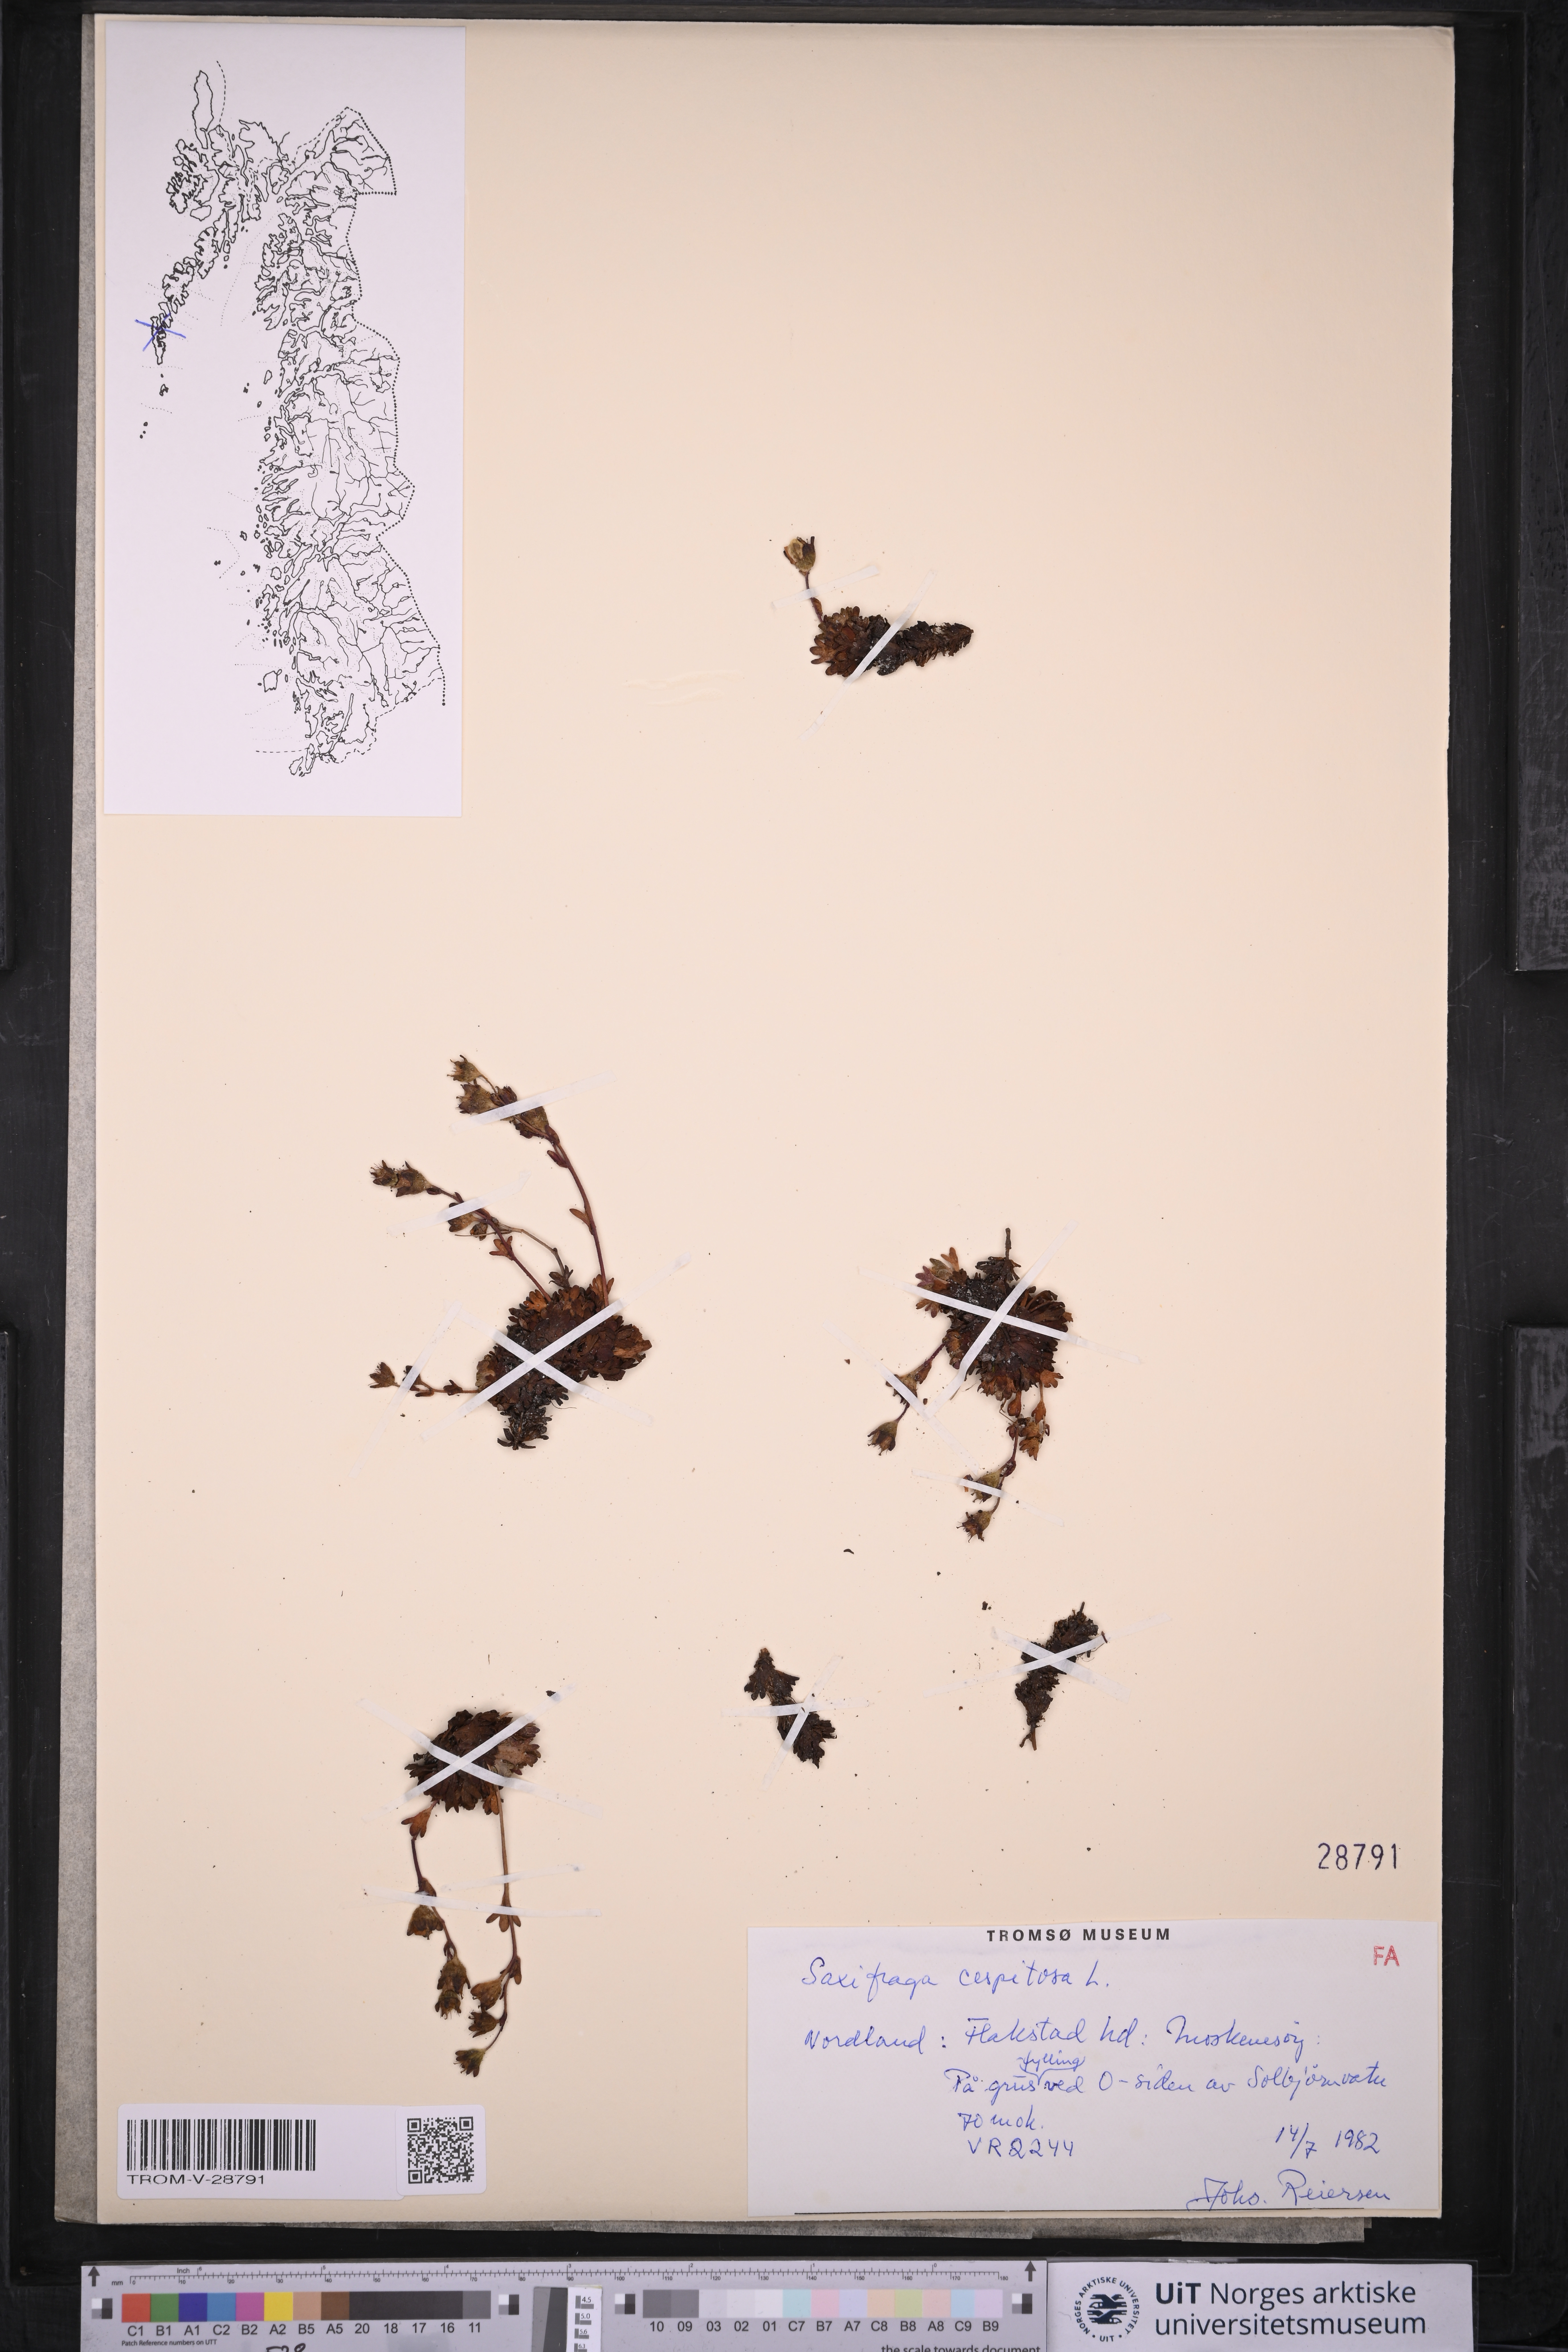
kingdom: Plantae
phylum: Tracheophyta
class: Magnoliopsida
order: Saxifragales
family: Saxifragaceae
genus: Saxifraga
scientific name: Saxifraga cespitosa
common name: Tufted saxifrage
